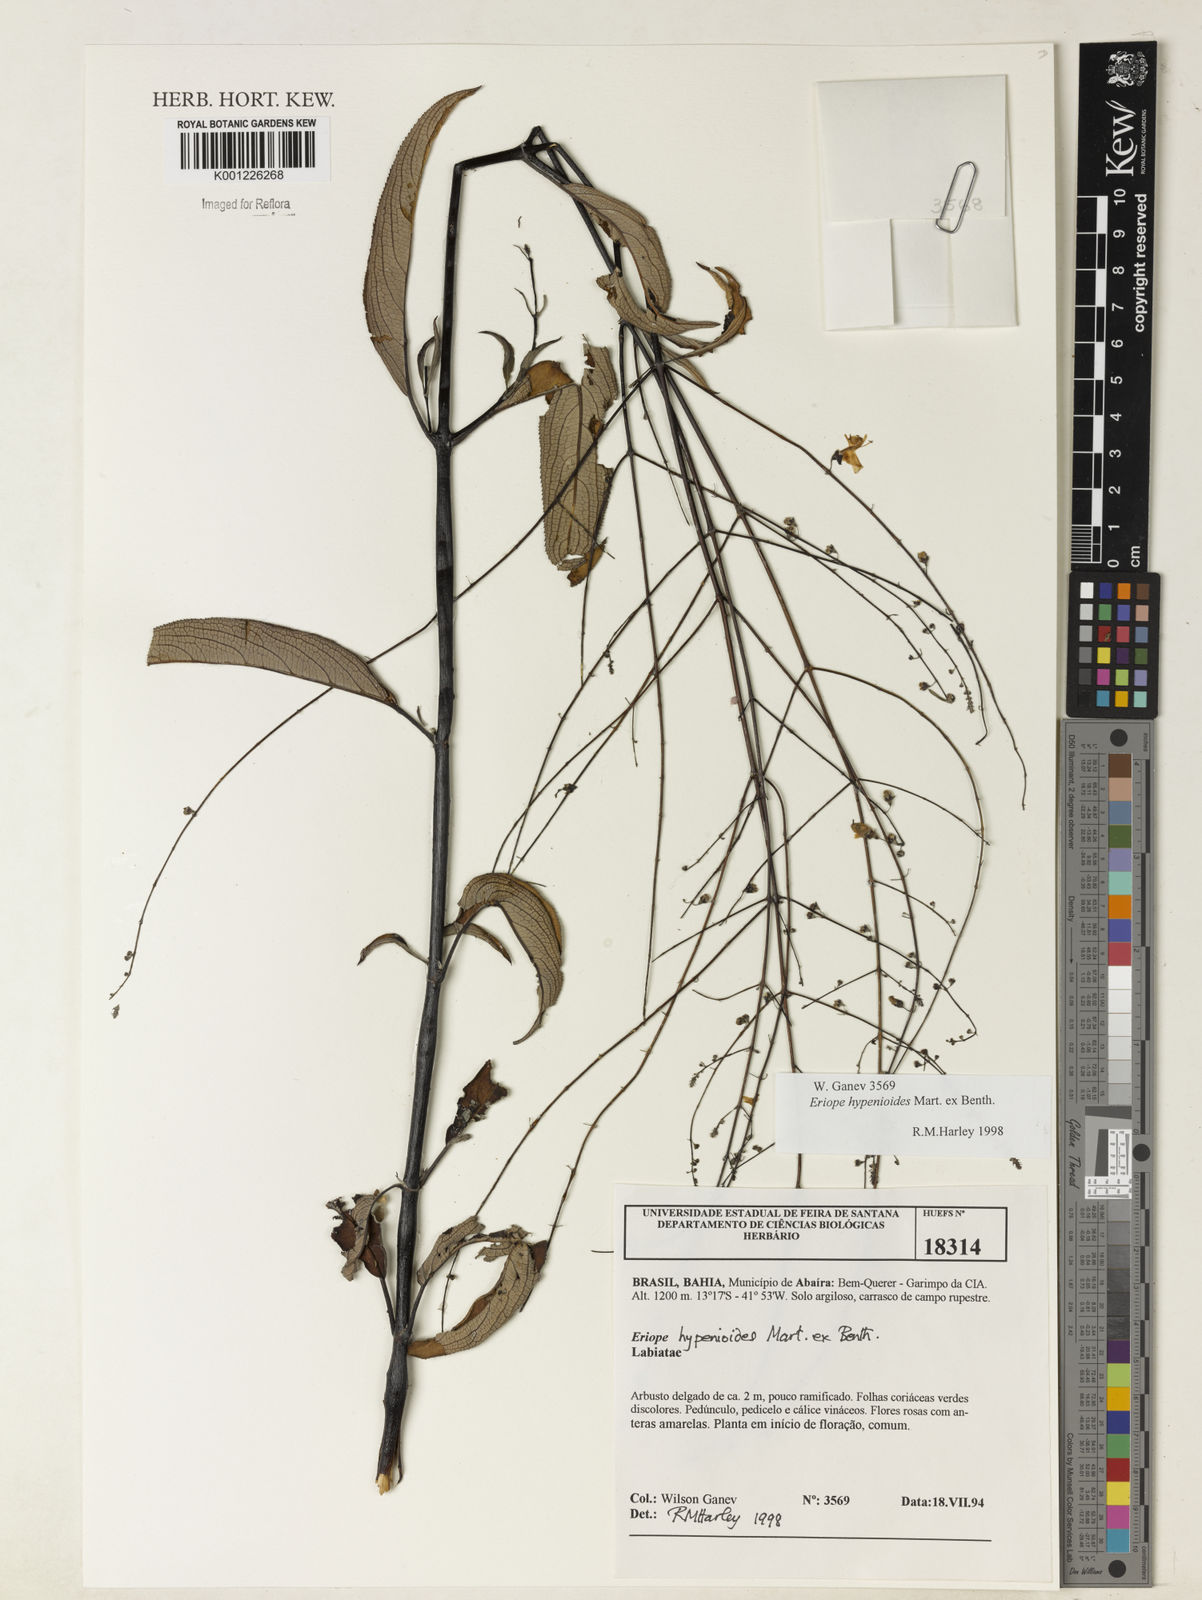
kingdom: Plantae
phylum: Tracheophyta
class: Magnoliopsida
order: Lamiales
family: Lamiaceae
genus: Eriope
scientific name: Eriope hypenioides
